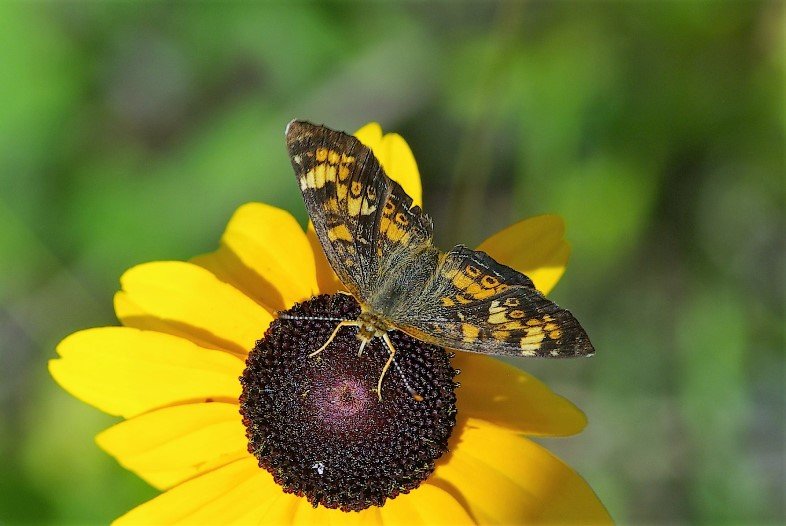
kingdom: Animalia
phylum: Arthropoda
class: Insecta
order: Lepidoptera
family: Nymphalidae
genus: Phyciodes
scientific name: Phyciodes tharos
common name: Pearl Crescent
